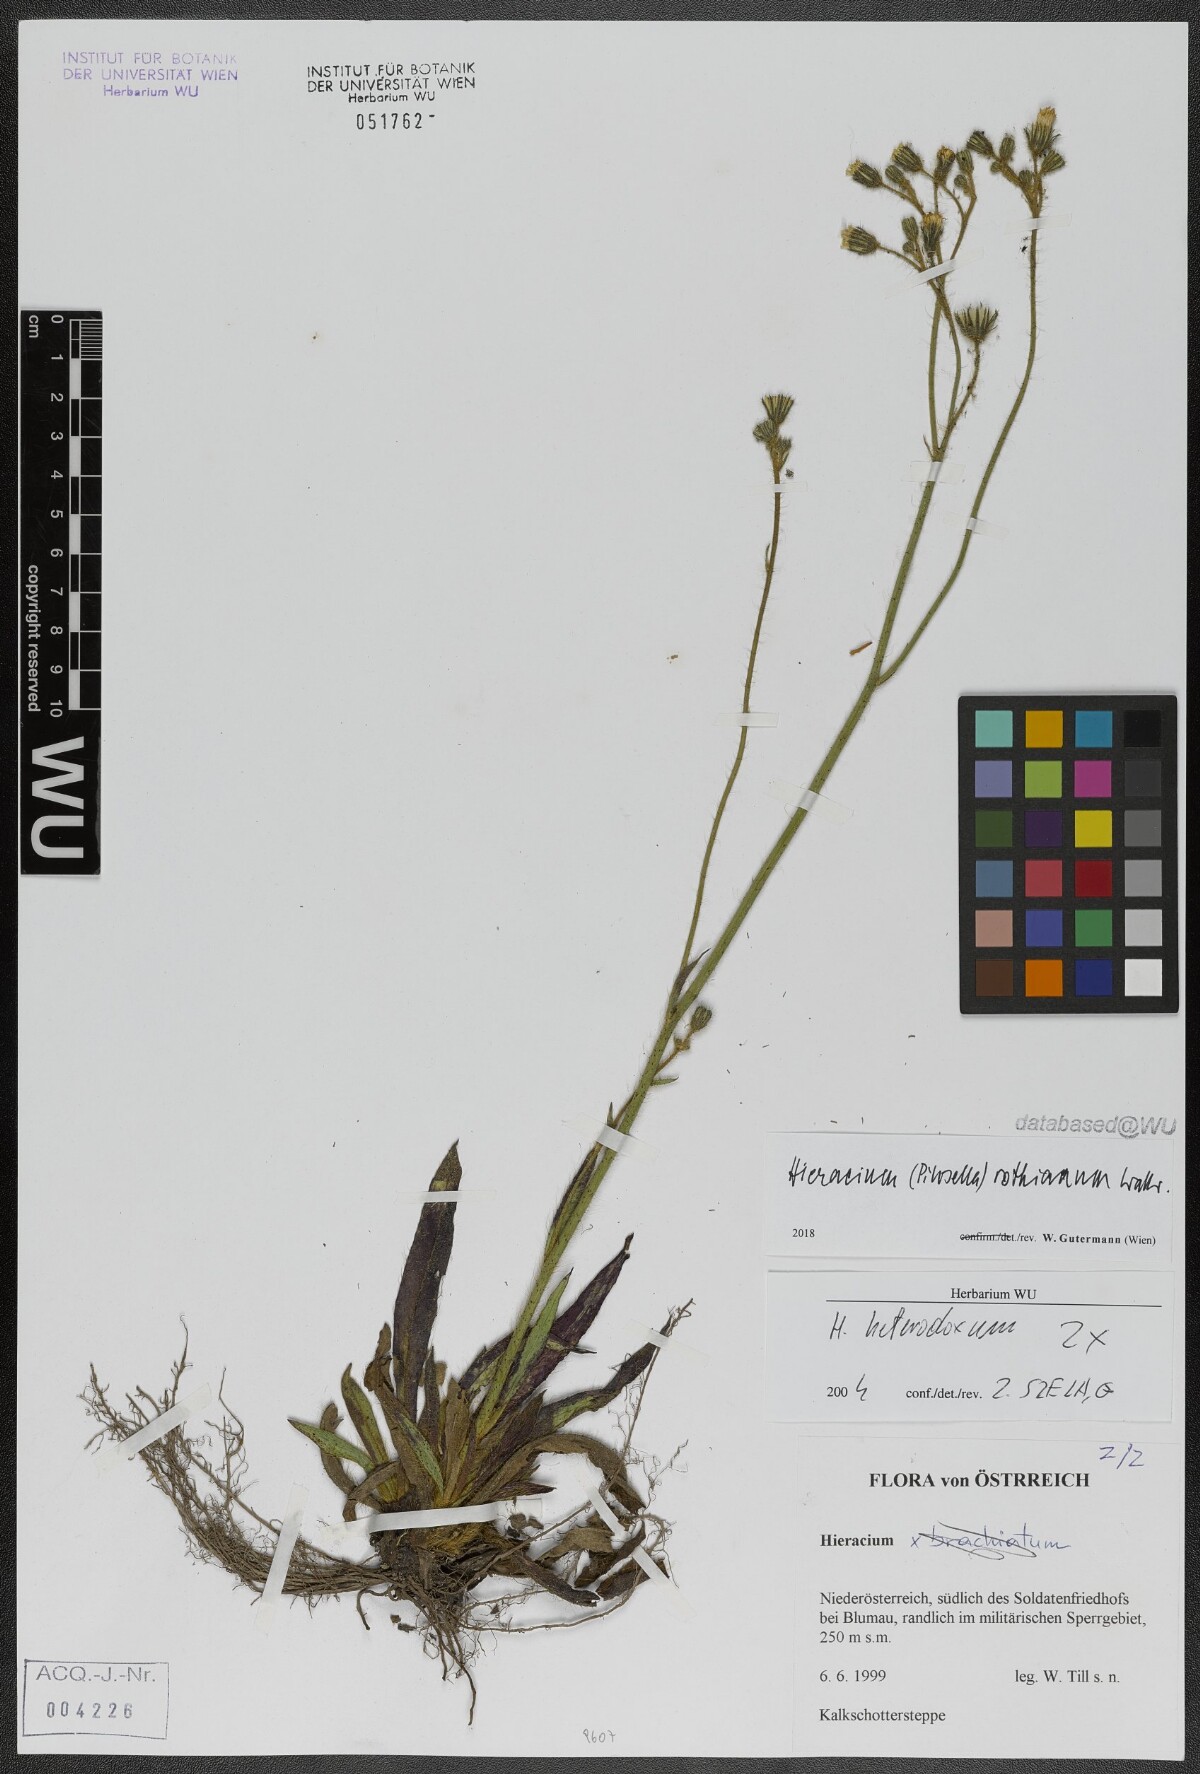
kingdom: Plantae
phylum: Tracheophyta
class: Magnoliopsida
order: Asterales
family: Asteraceae
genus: Pilosella
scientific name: Pilosella rothiana
